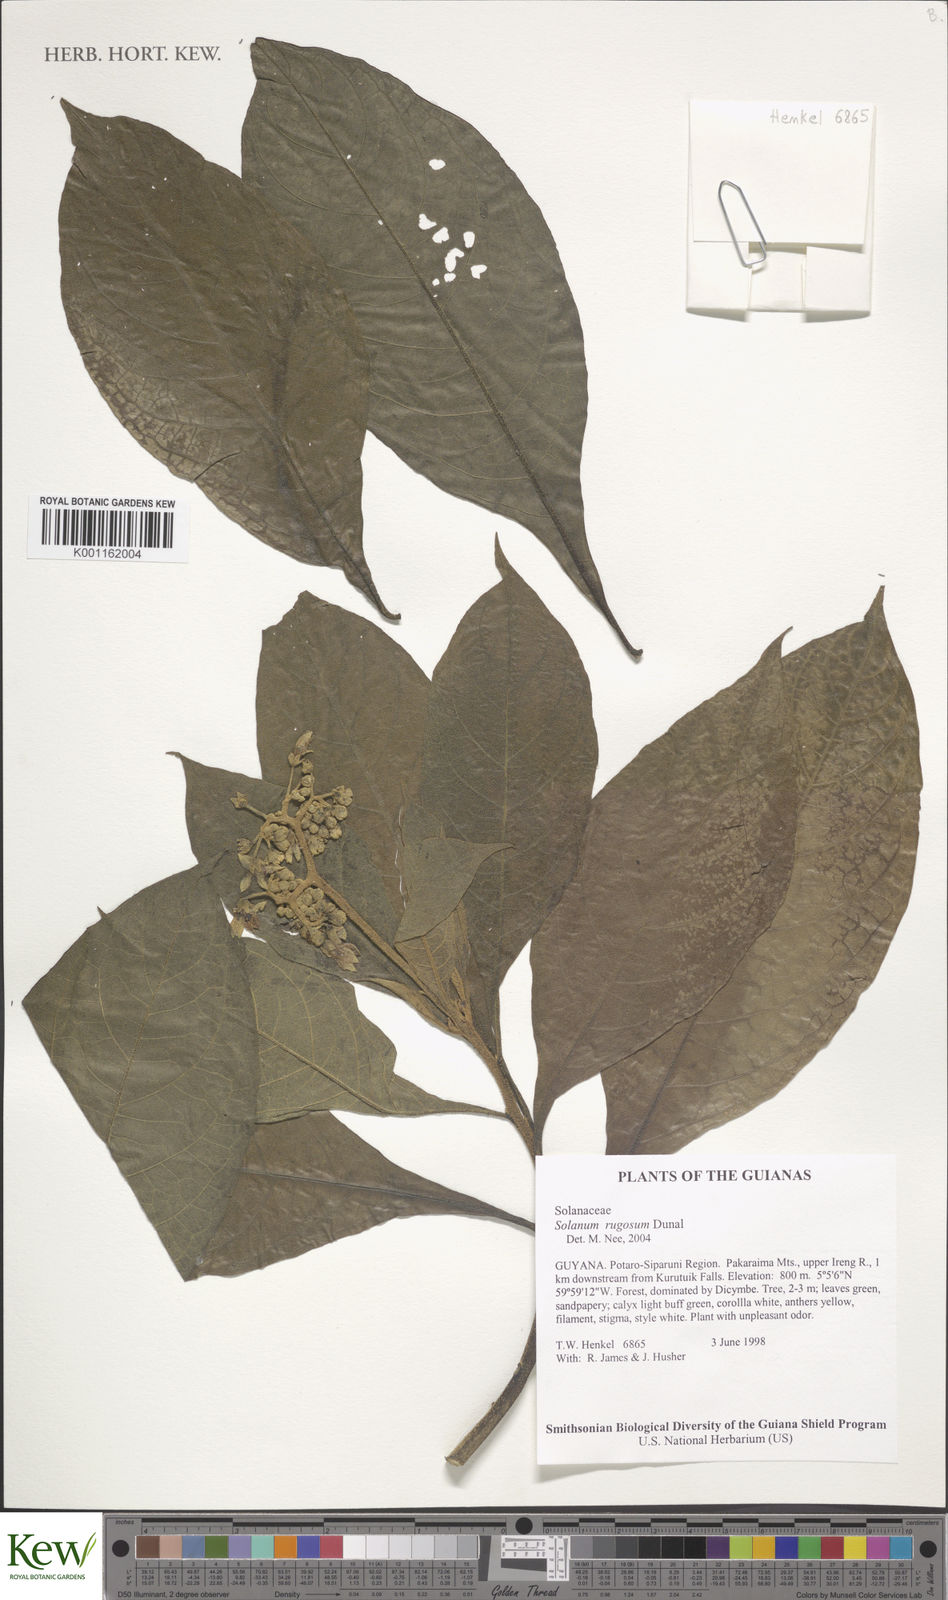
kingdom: Plantae
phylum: Tracheophyta
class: Magnoliopsida
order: Solanales
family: Solanaceae
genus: Solanum
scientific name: Solanum rugosum
